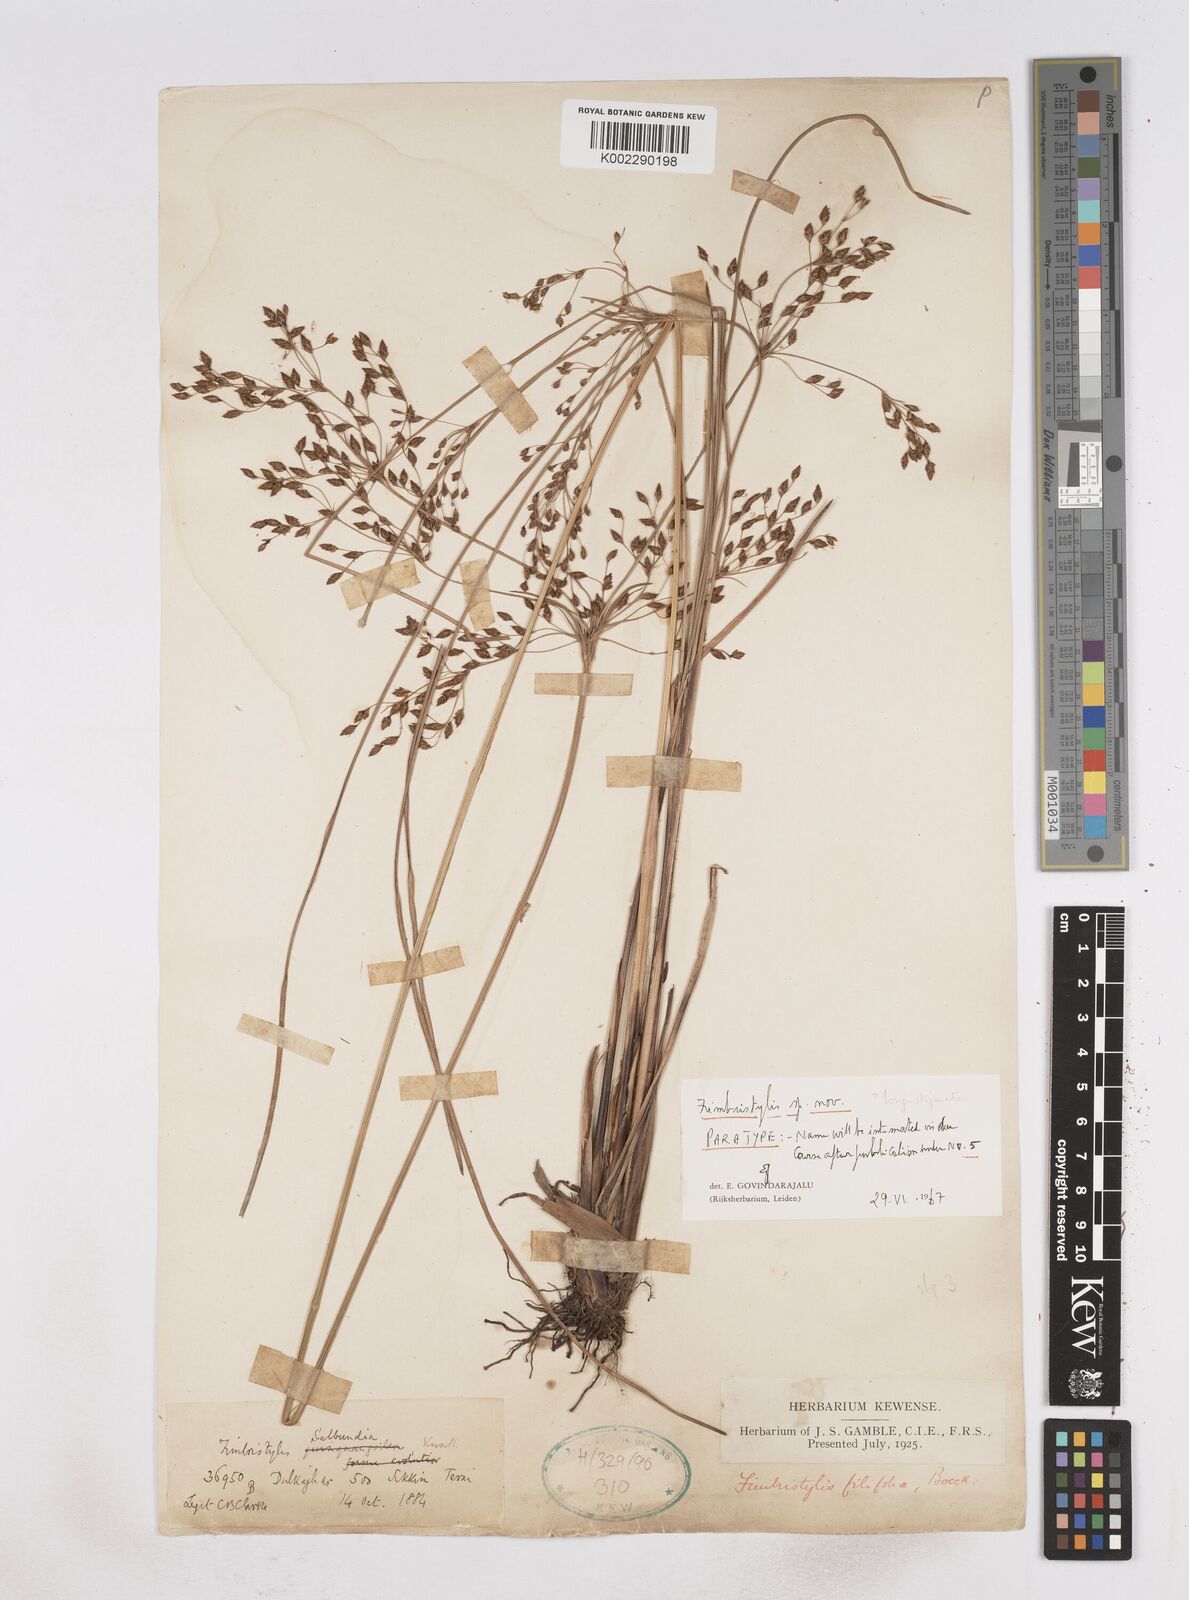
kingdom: Plantae
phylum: Tracheophyta
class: Liliopsida
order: Poales
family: Cyperaceae
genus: Fimbristylis
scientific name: Fimbristylis
